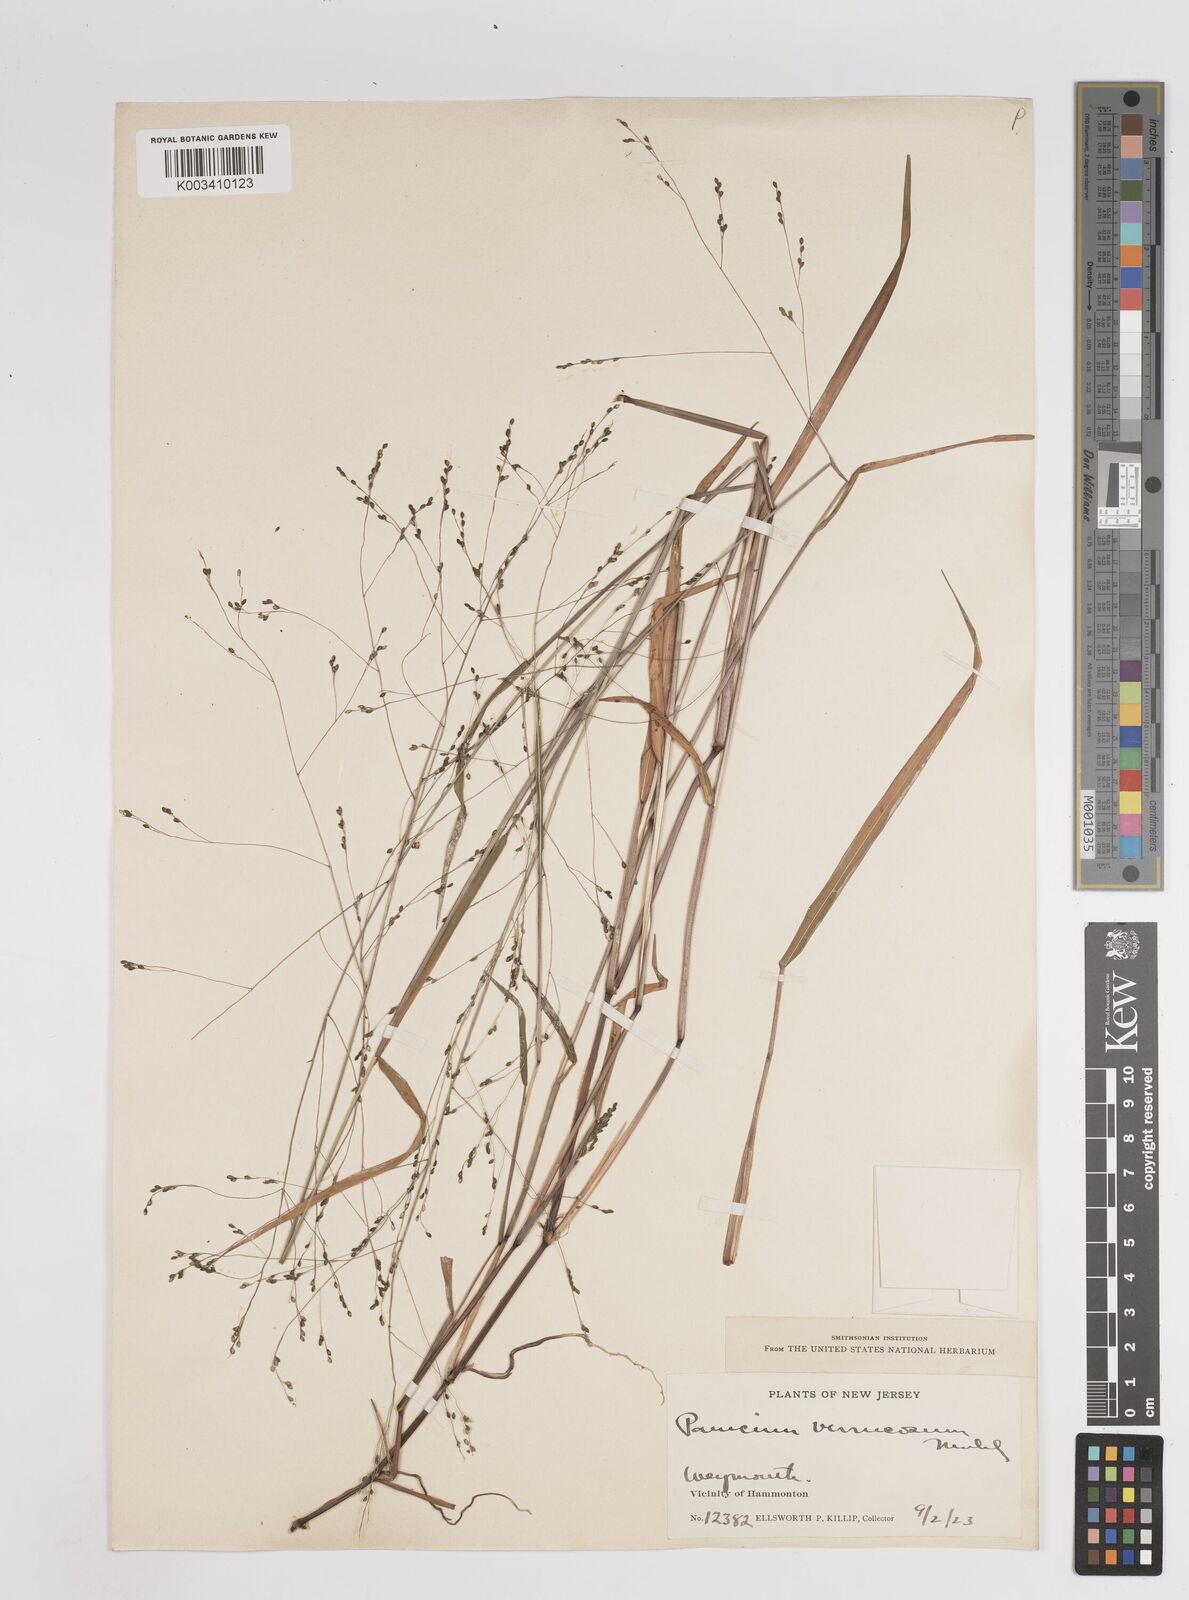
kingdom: Plantae
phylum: Tracheophyta
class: Liliopsida
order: Poales
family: Poaceae
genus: Kellochloa
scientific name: Kellochloa verrucosa
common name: Warty panic grass
